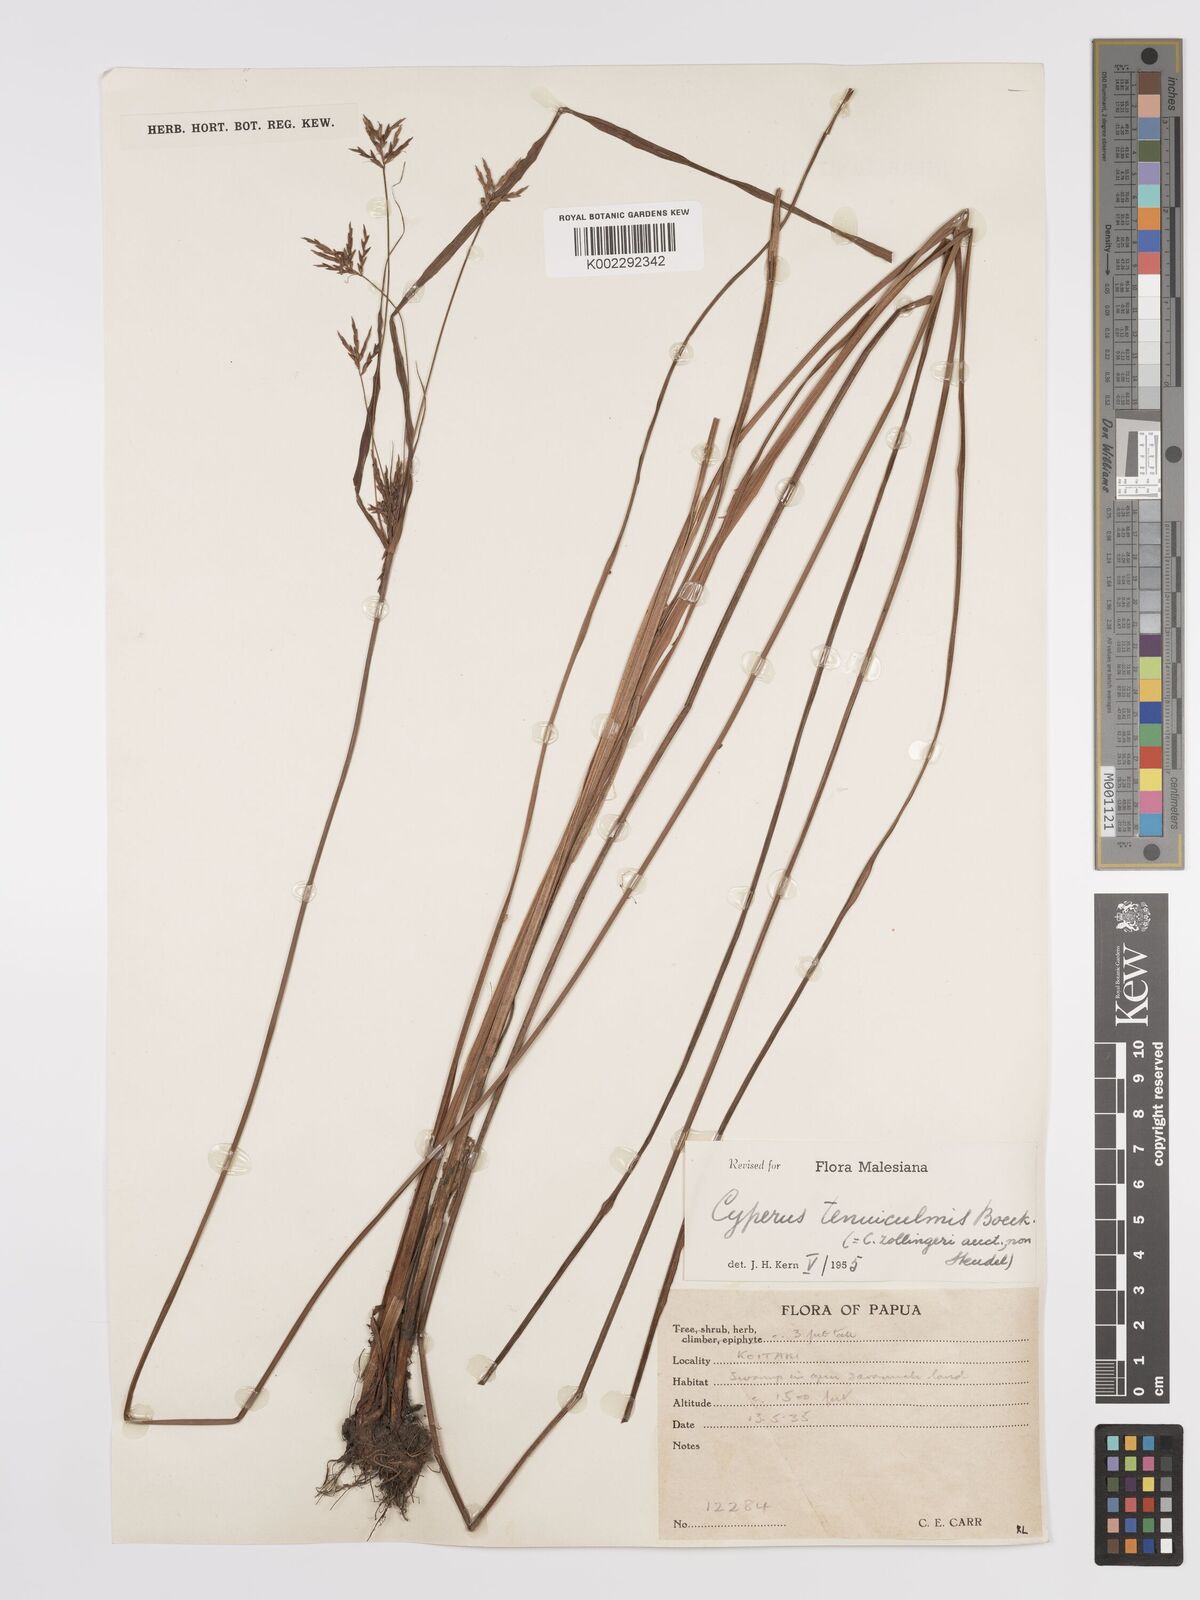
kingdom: Plantae
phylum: Tracheophyta
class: Liliopsida
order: Poales
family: Cyperaceae
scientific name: Cyperaceae
